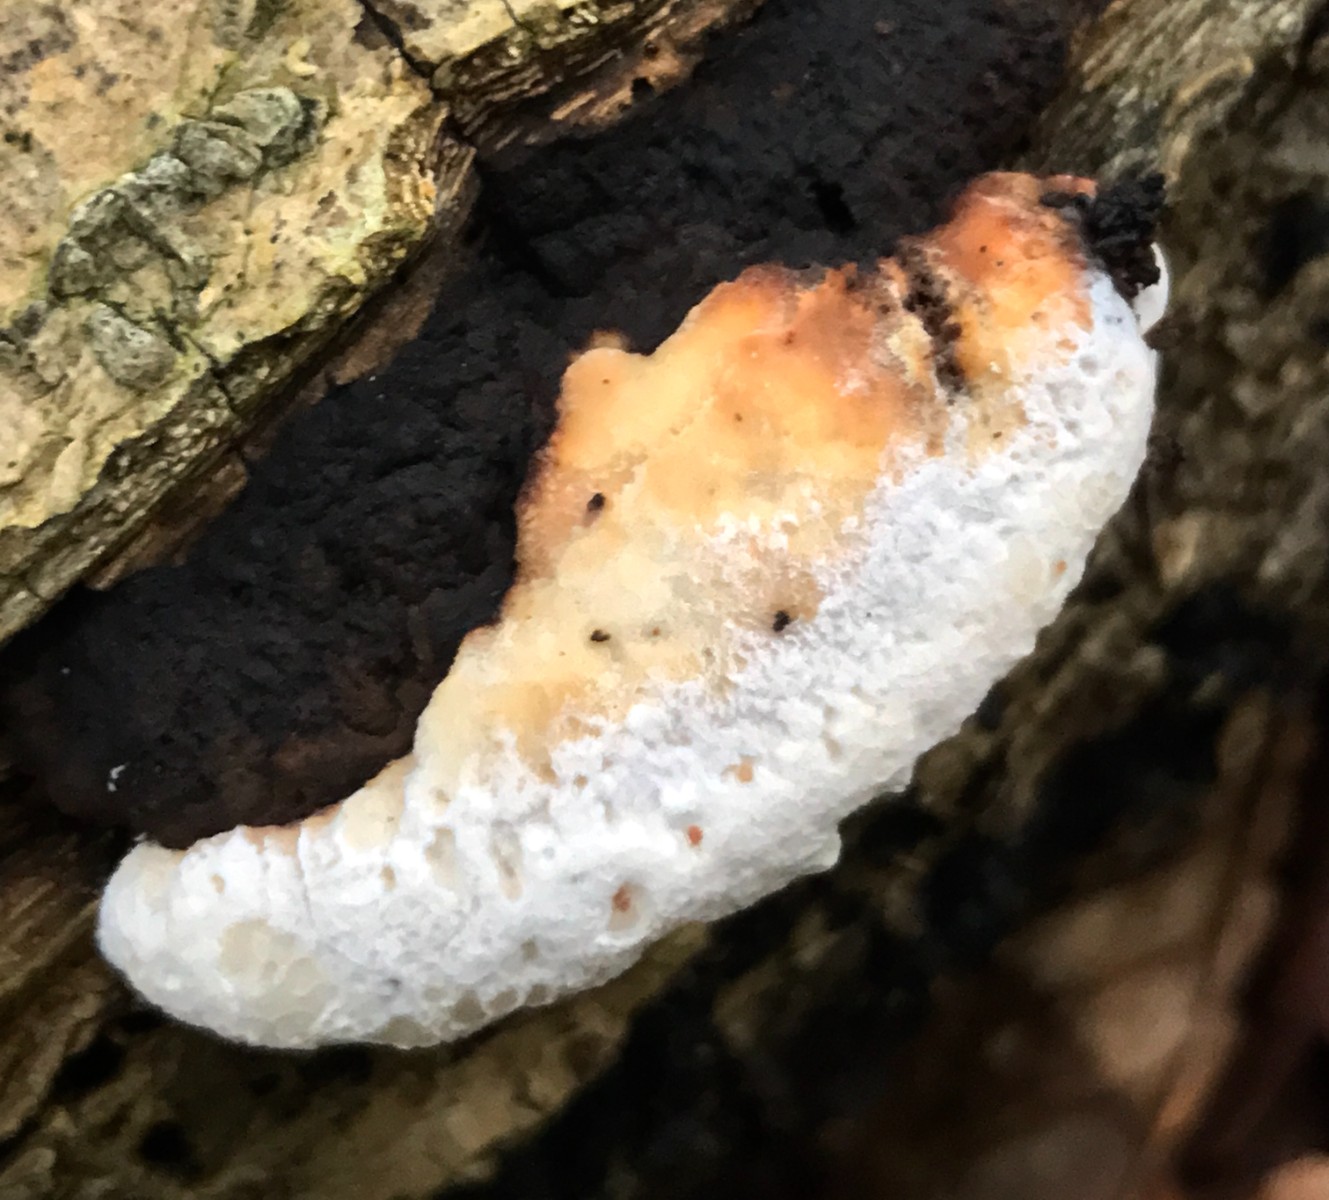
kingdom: Fungi
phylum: Basidiomycota
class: Agaricomycetes
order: Polyporales
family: Incrustoporiaceae
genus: Skeletocutis
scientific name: Skeletocutis nemoralis
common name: stor krystalporesvamp
